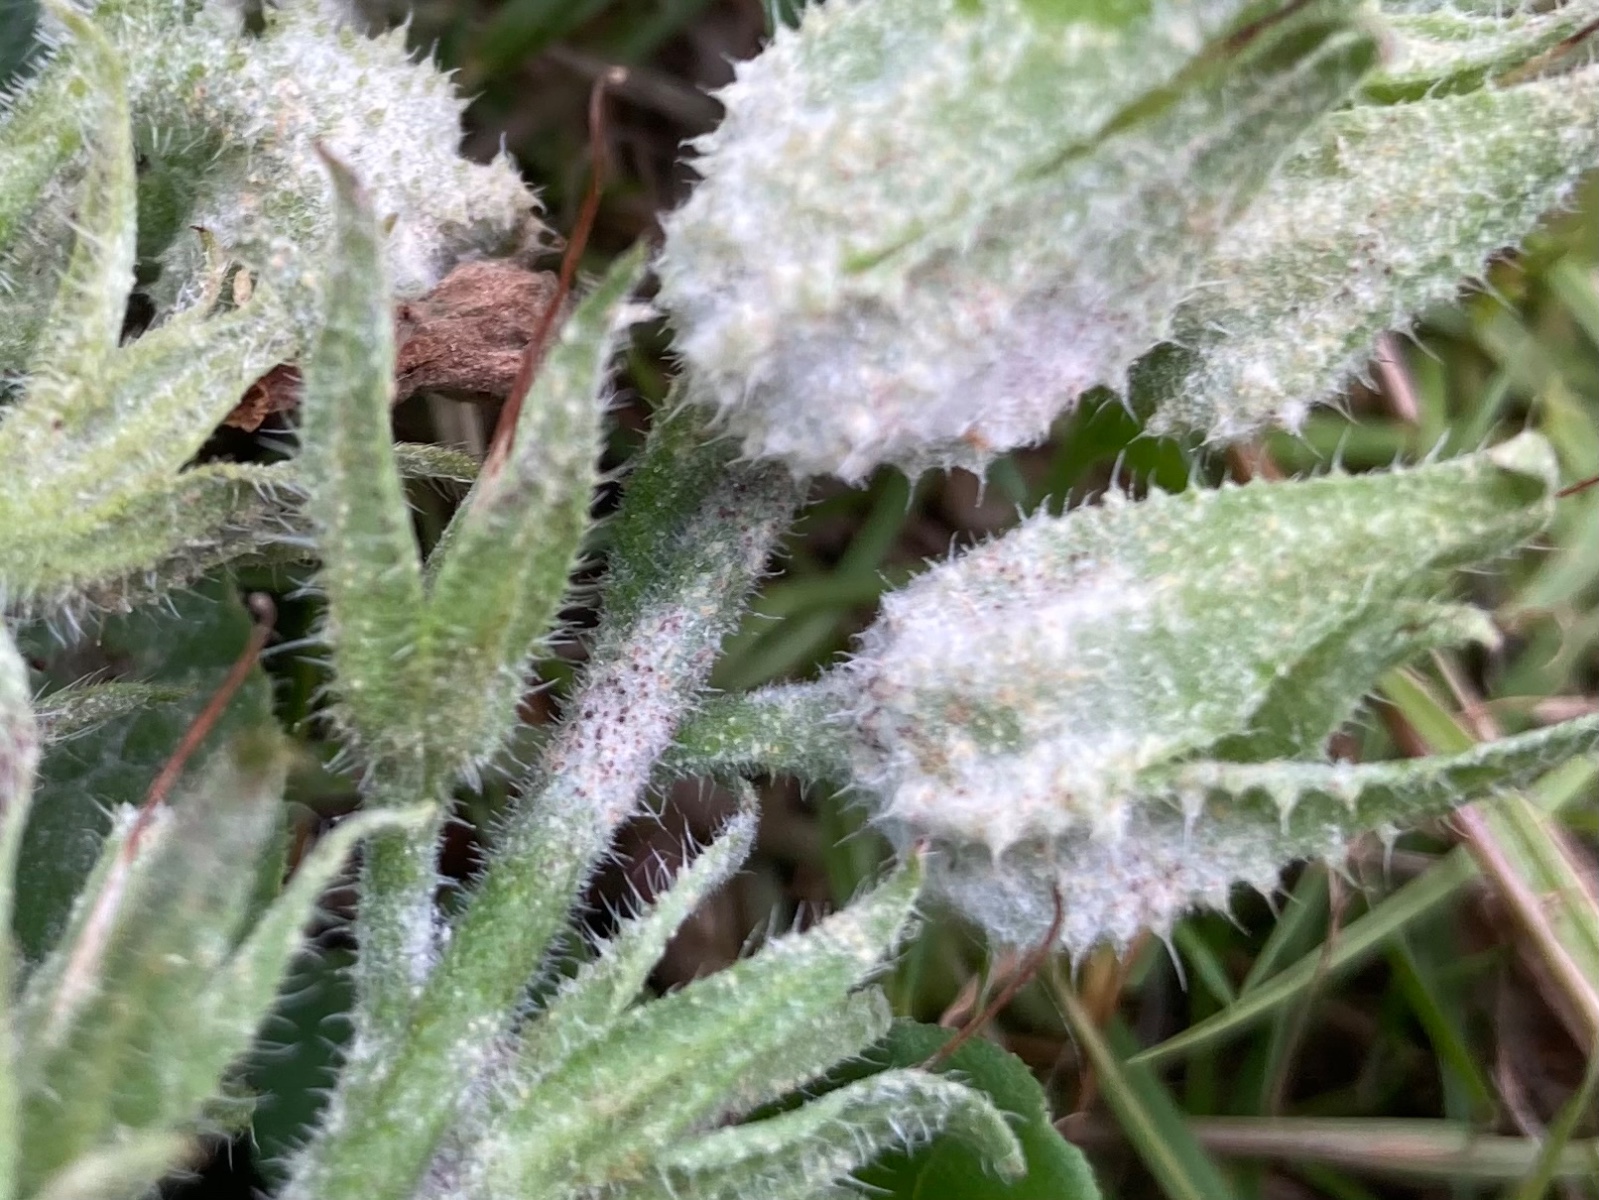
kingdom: Fungi
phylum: Ascomycota
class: Leotiomycetes
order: Helotiales
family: Erysiphaceae
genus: Golovinomyces
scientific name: Golovinomyces asperifoliorum
